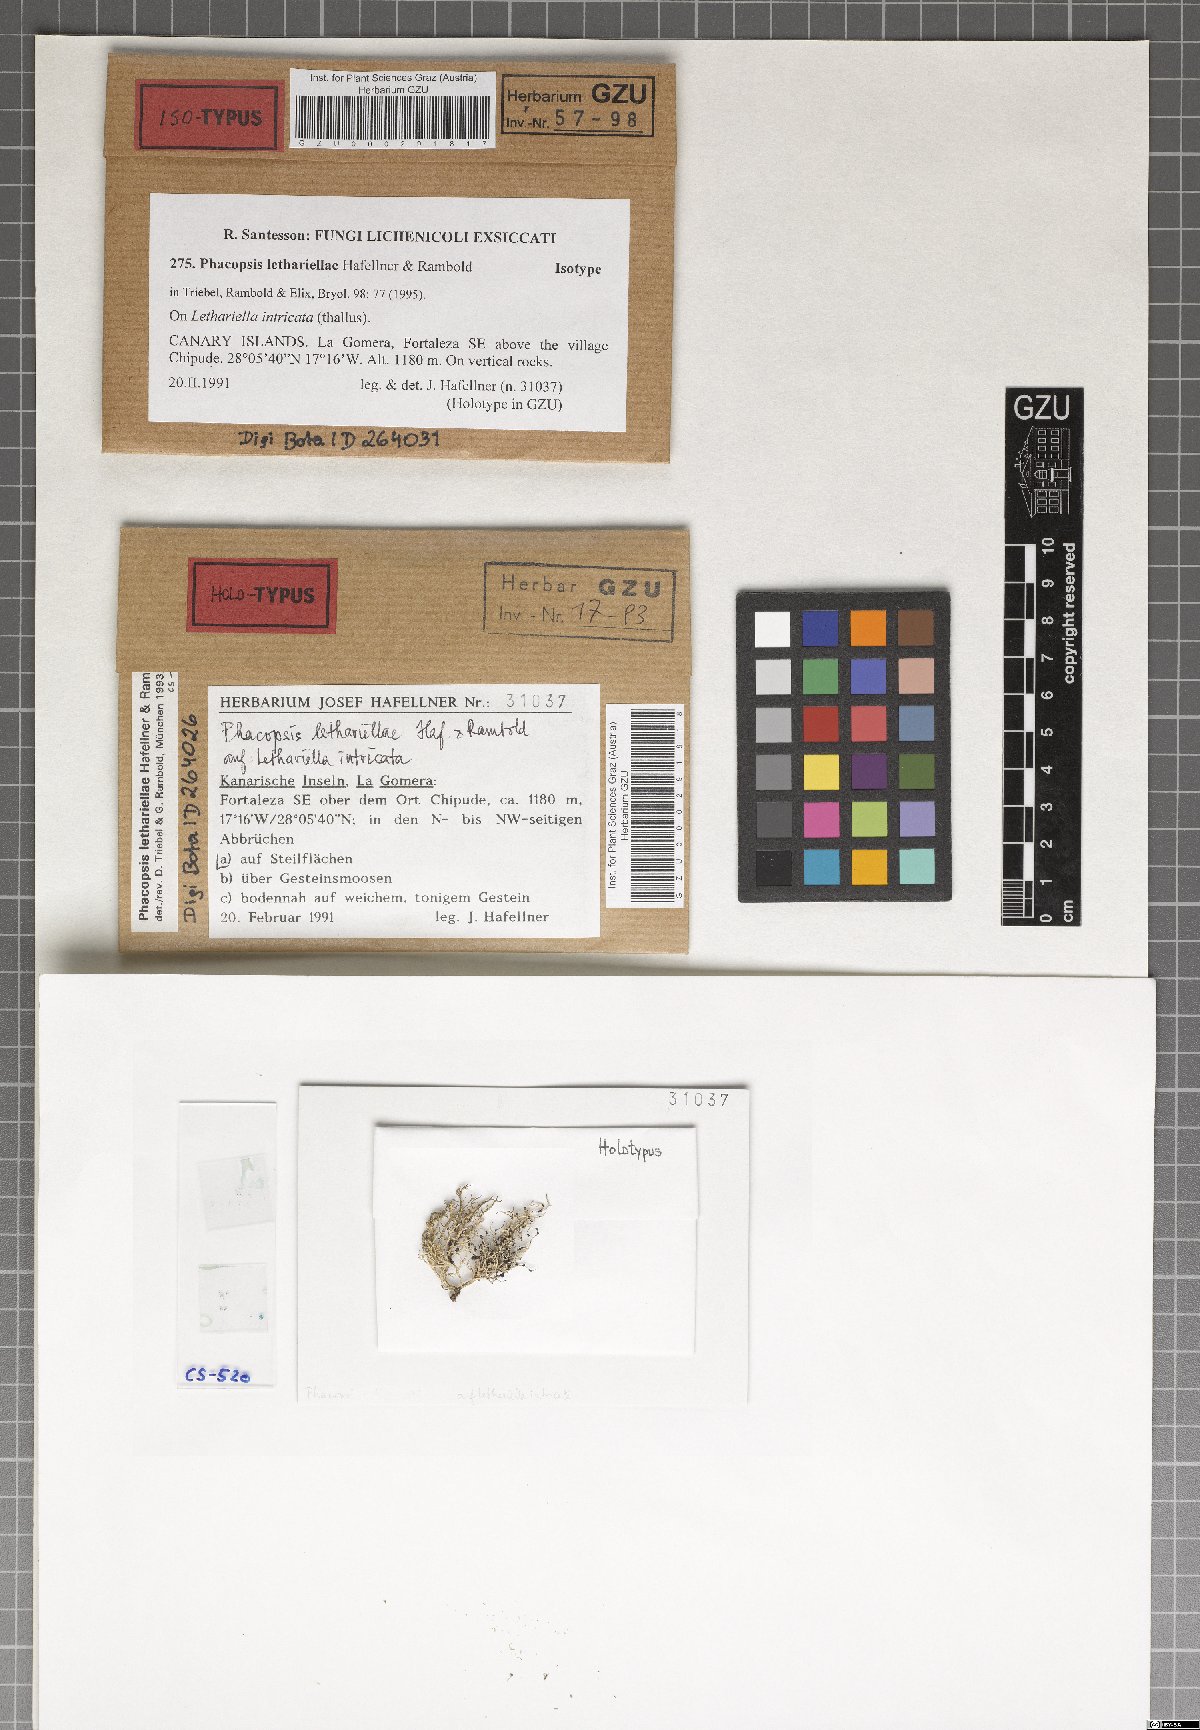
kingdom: Fungi
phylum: Ascomycota
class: Lecanoromycetes
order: Lecanorales
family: Parmeliaceae
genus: Phacopsis
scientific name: Phacopsis
